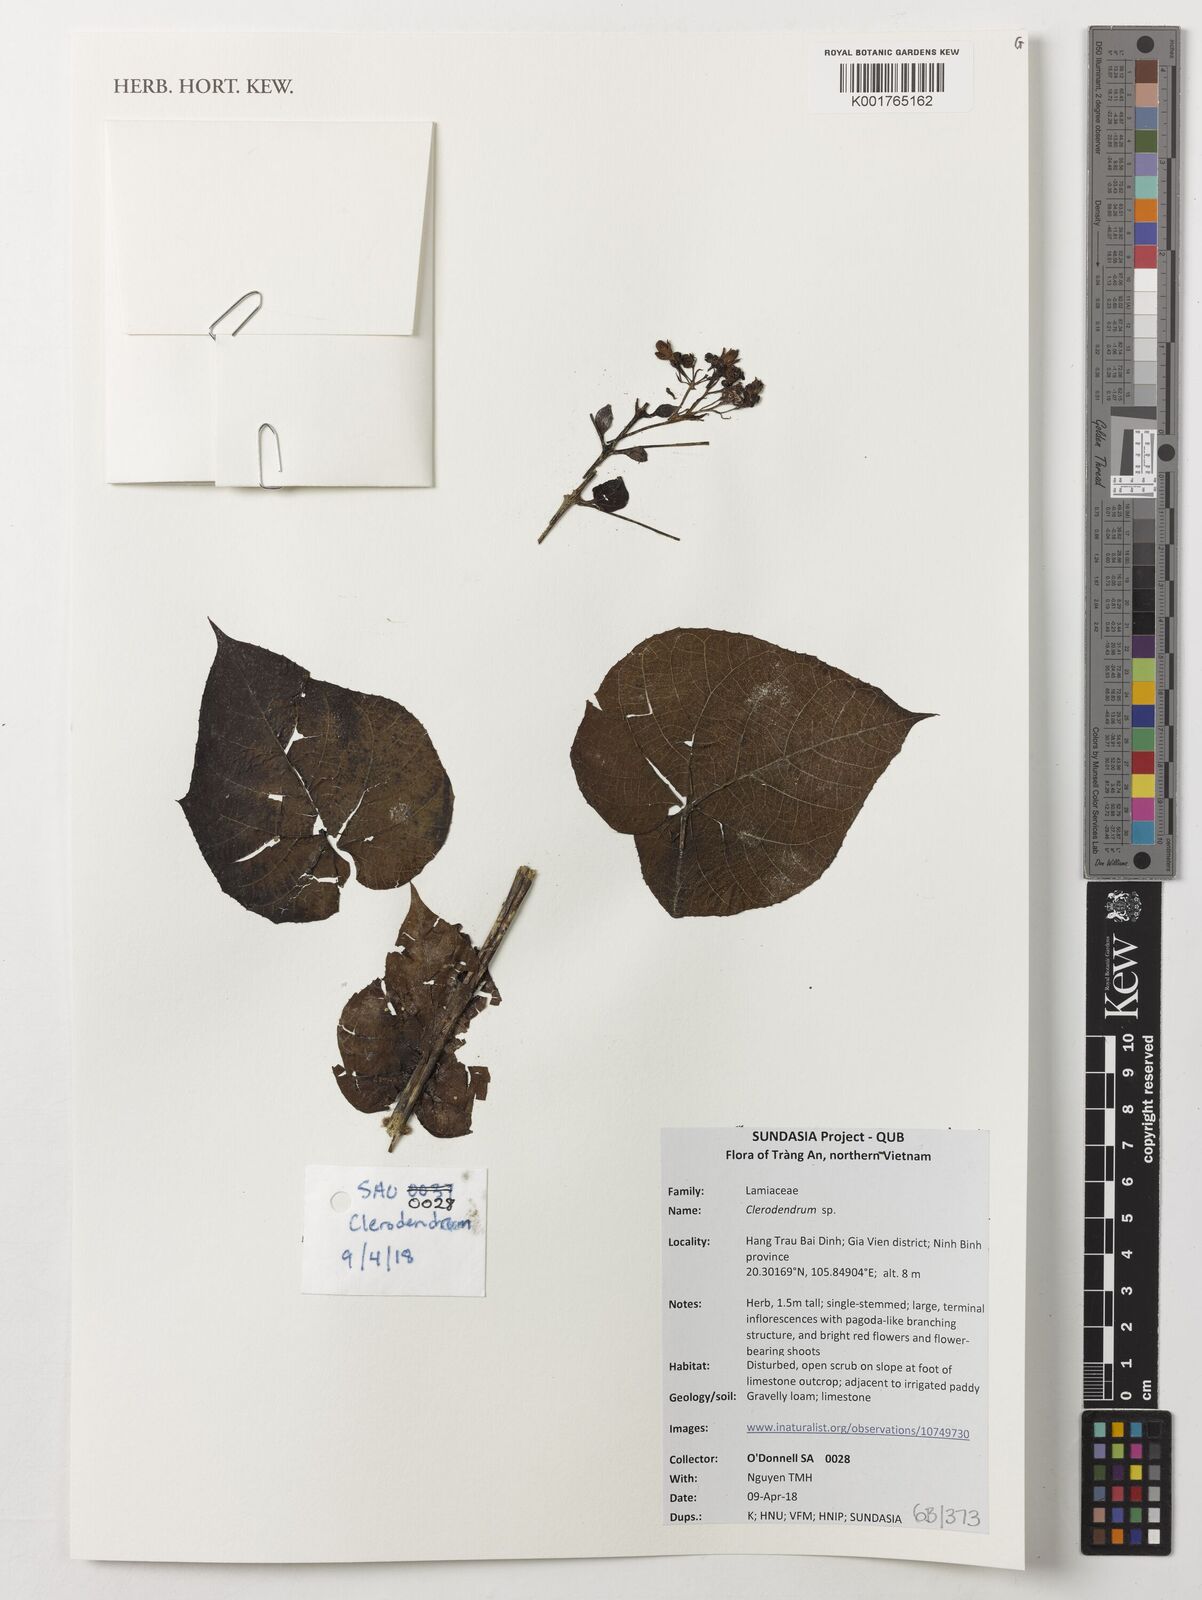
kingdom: Plantae
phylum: Tracheophyta
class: Magnoliopsida
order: Lamiales
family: Lamiaceae
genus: Clerodendrum
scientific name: Clerodendrum
